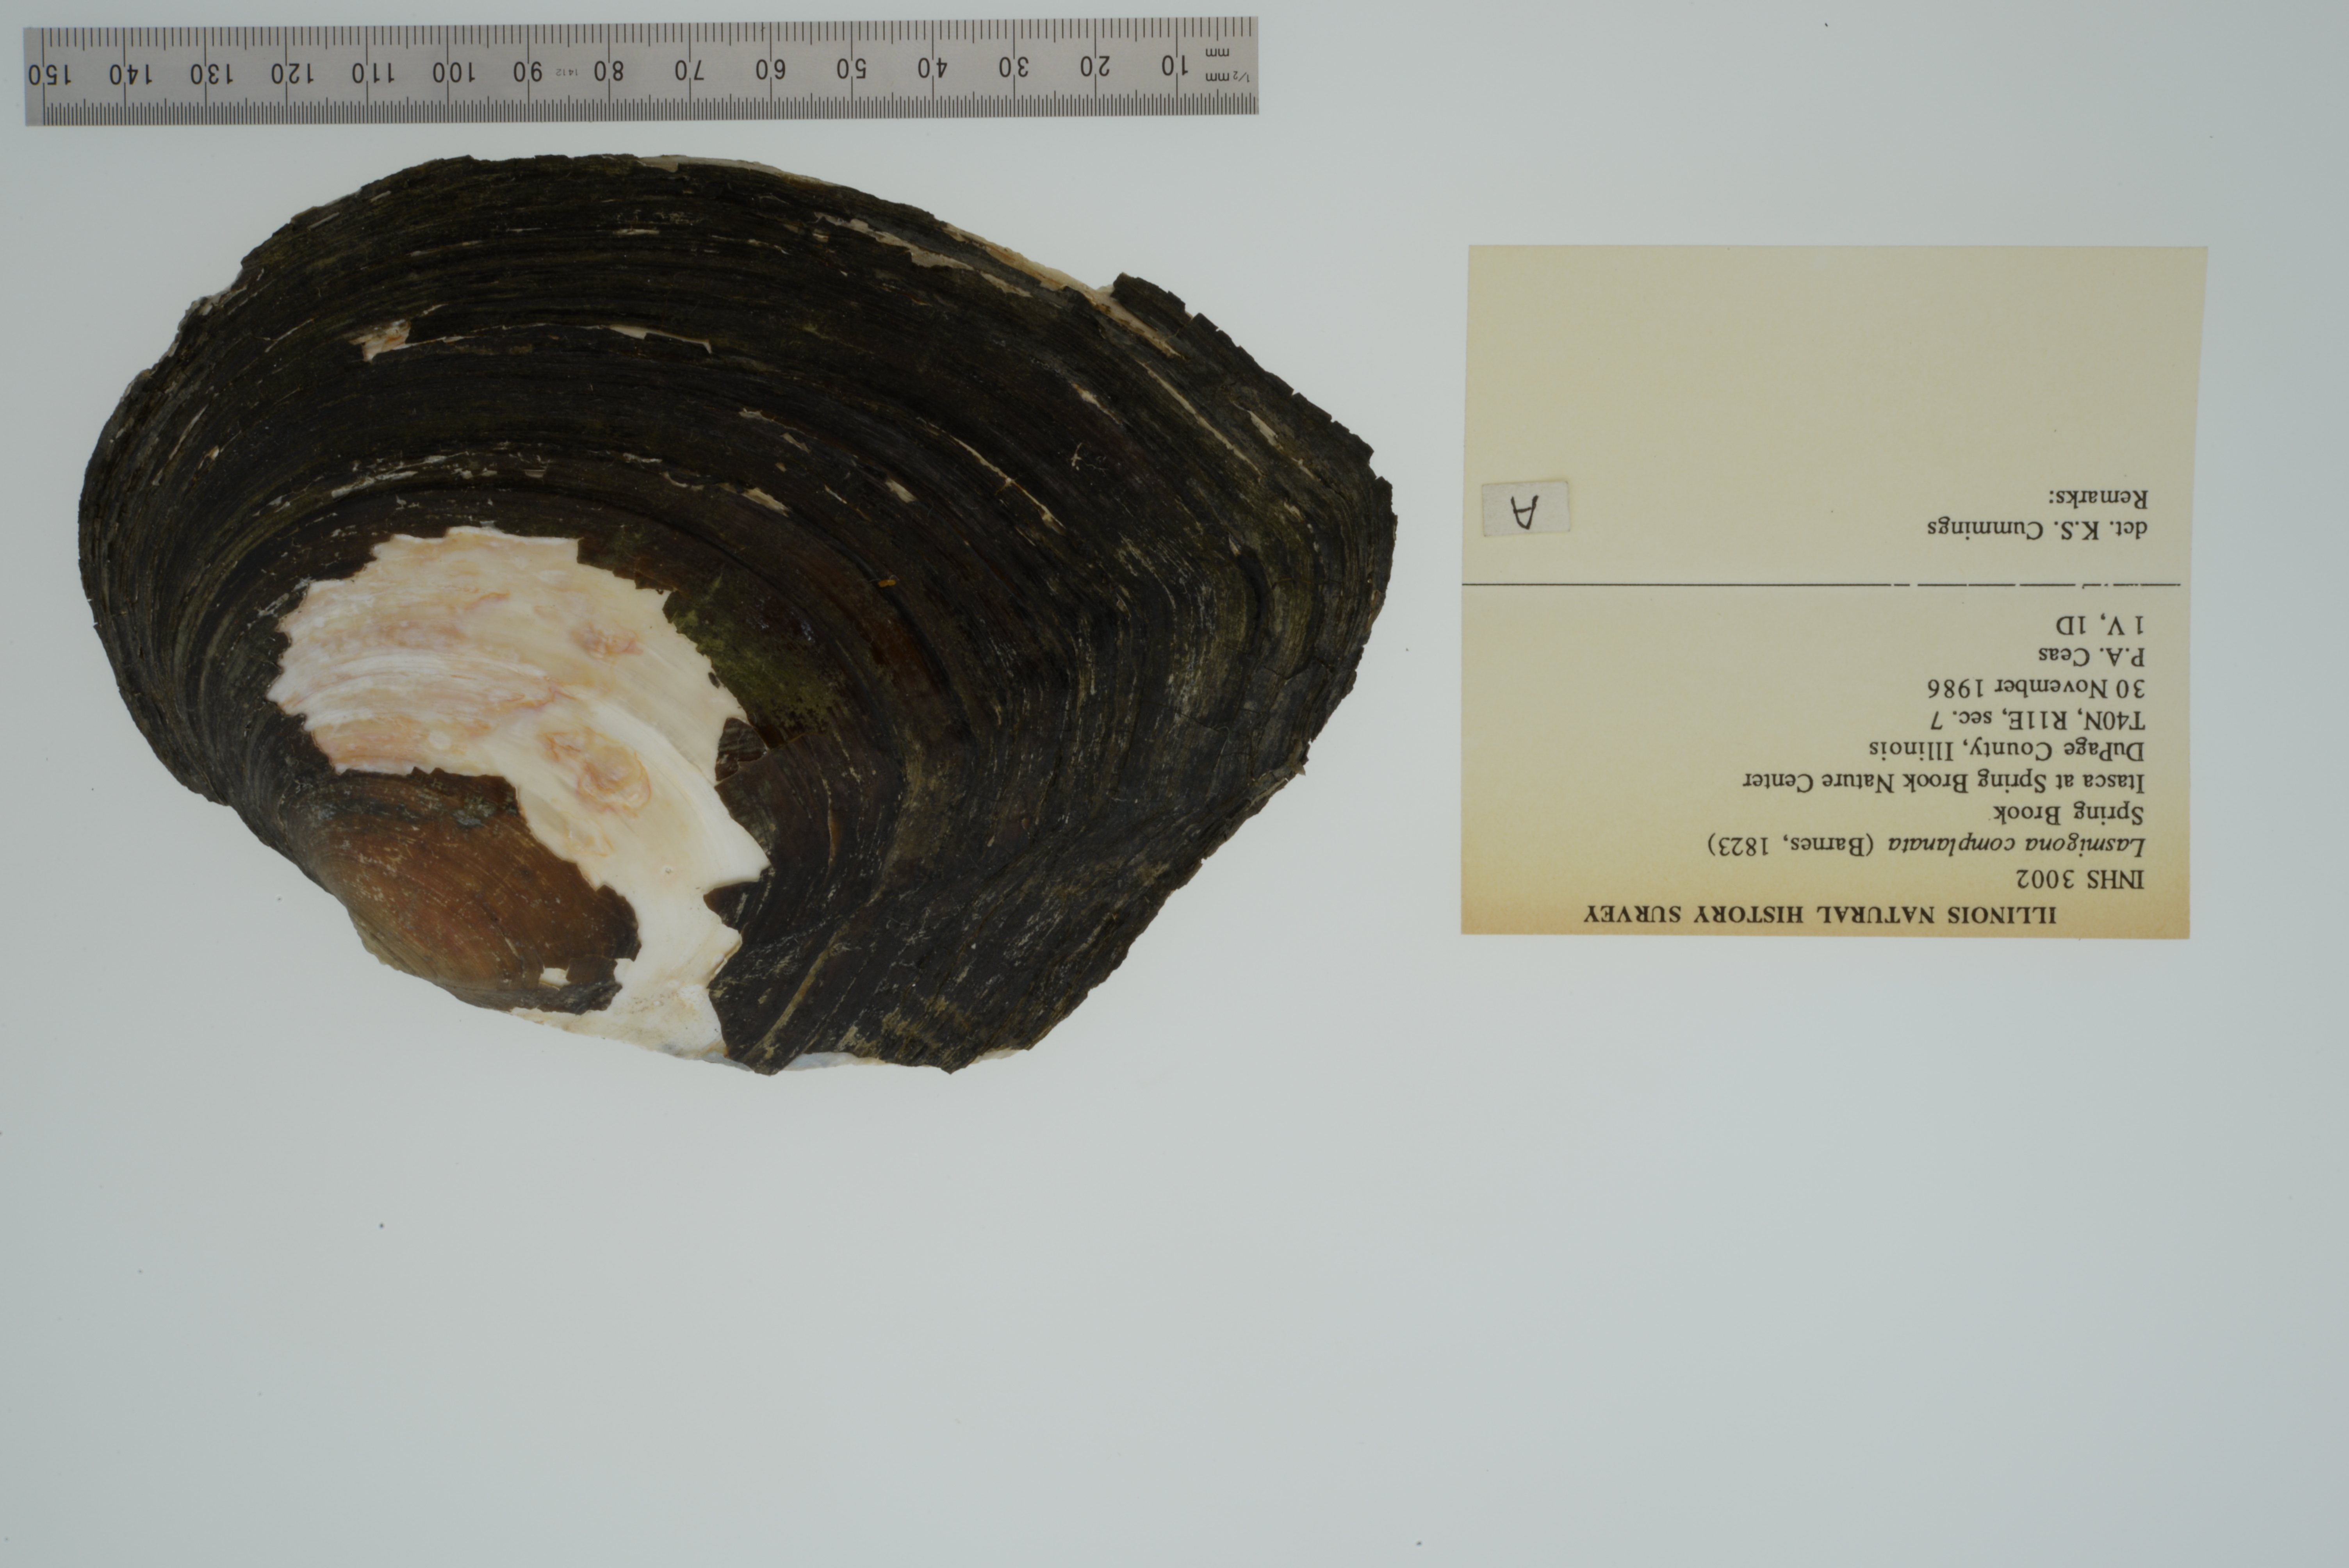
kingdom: Animalia
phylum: Mollusca
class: Bivalvia
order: Unionida
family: Unionidae
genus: Lasmigona
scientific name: Lasmigona complanata
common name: White heelsplitter
